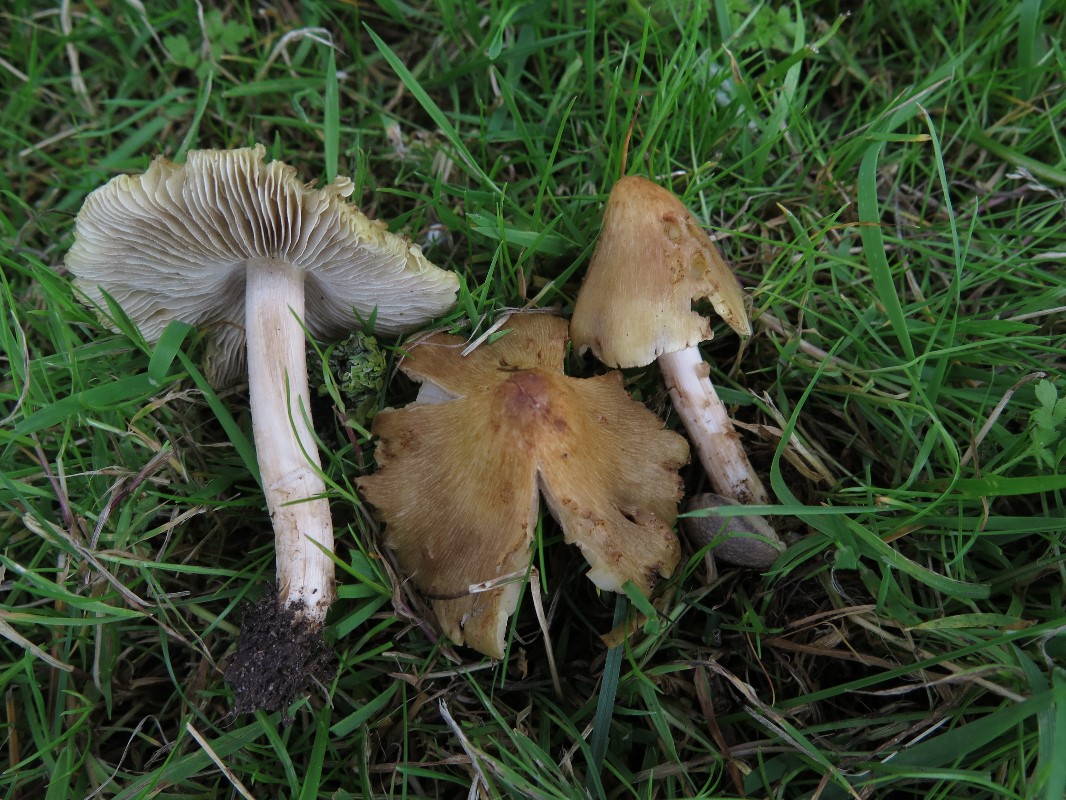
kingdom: Fungi
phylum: Basidiomycota
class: Agaricomycetes
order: Agaricales
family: Inocybaceae
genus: Pseudosperma
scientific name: Pseudosperma rimosum
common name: gulbladet trævlhat
